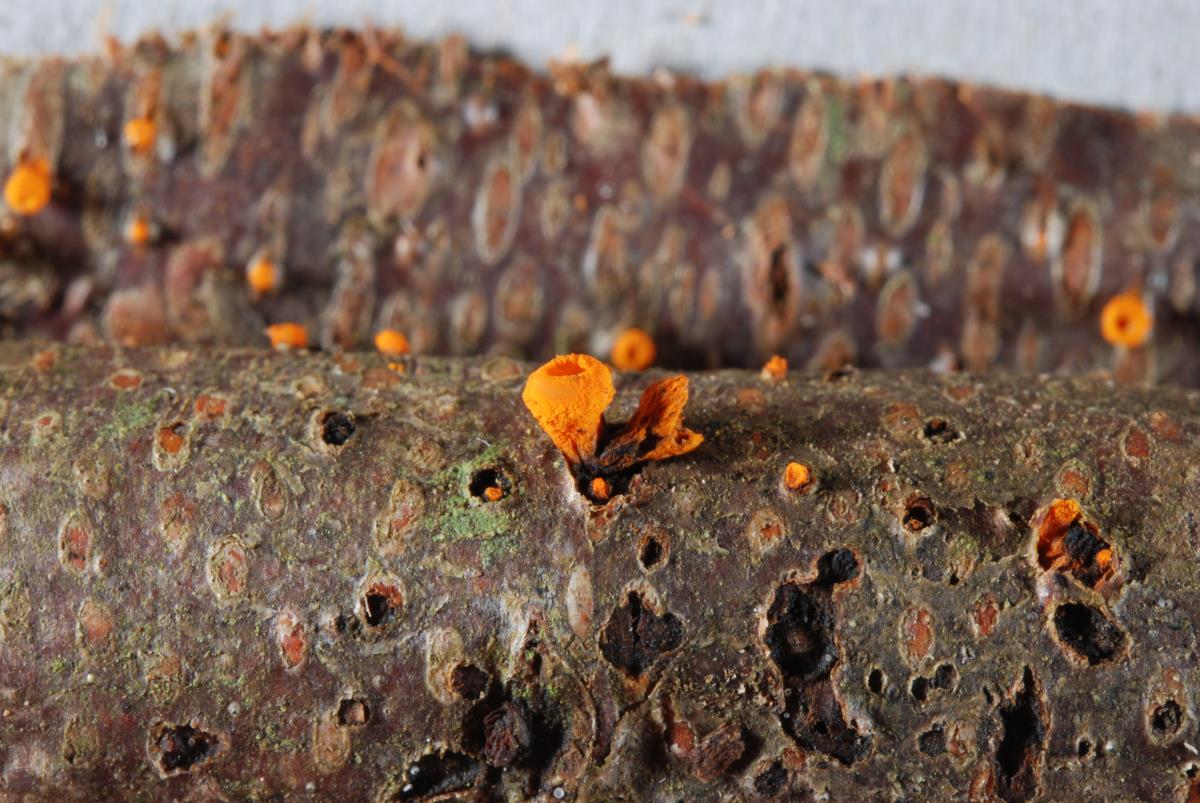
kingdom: Fungi
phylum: Ascomycota
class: Leotiomycetes
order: Helotiales
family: Helotiaceae
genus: Dicephalospora
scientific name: Dicephalospora chrysotricha
